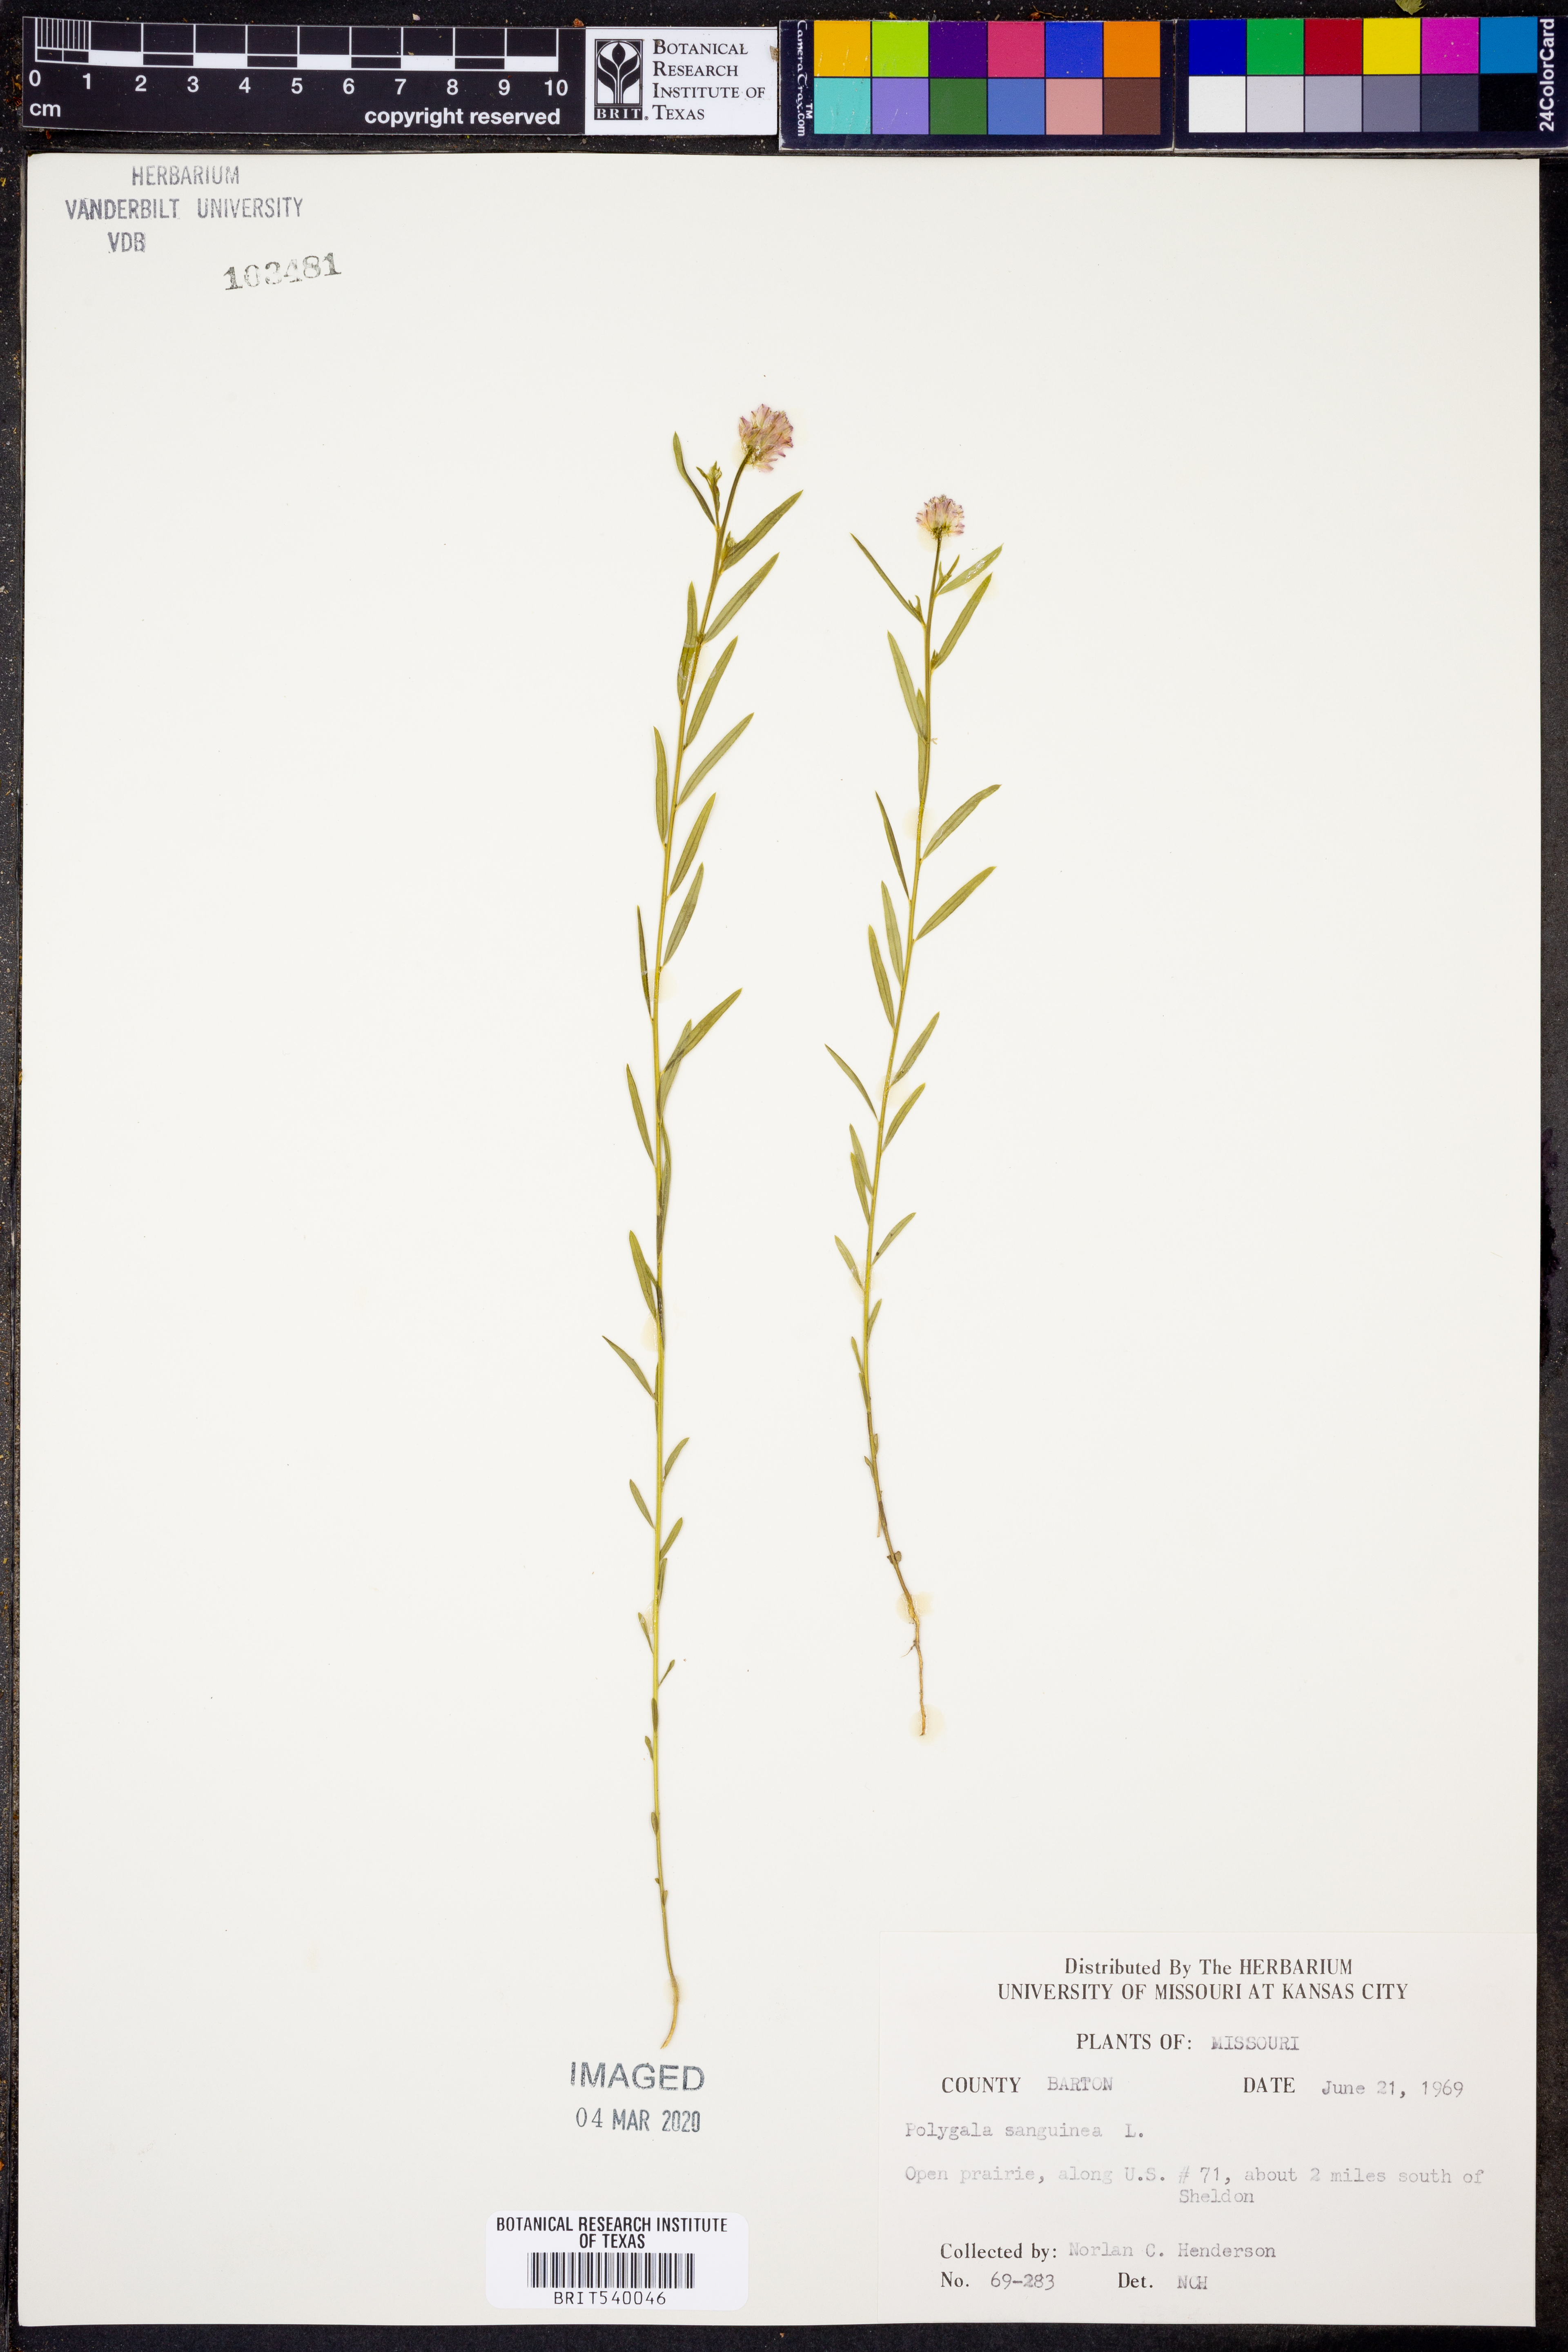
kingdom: Plantae
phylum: Tracheophyta
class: Magnoliopsida
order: Fabales
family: Polygalaceae
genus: Polygala
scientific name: Polygala sanguinea
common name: Blood milkwort
